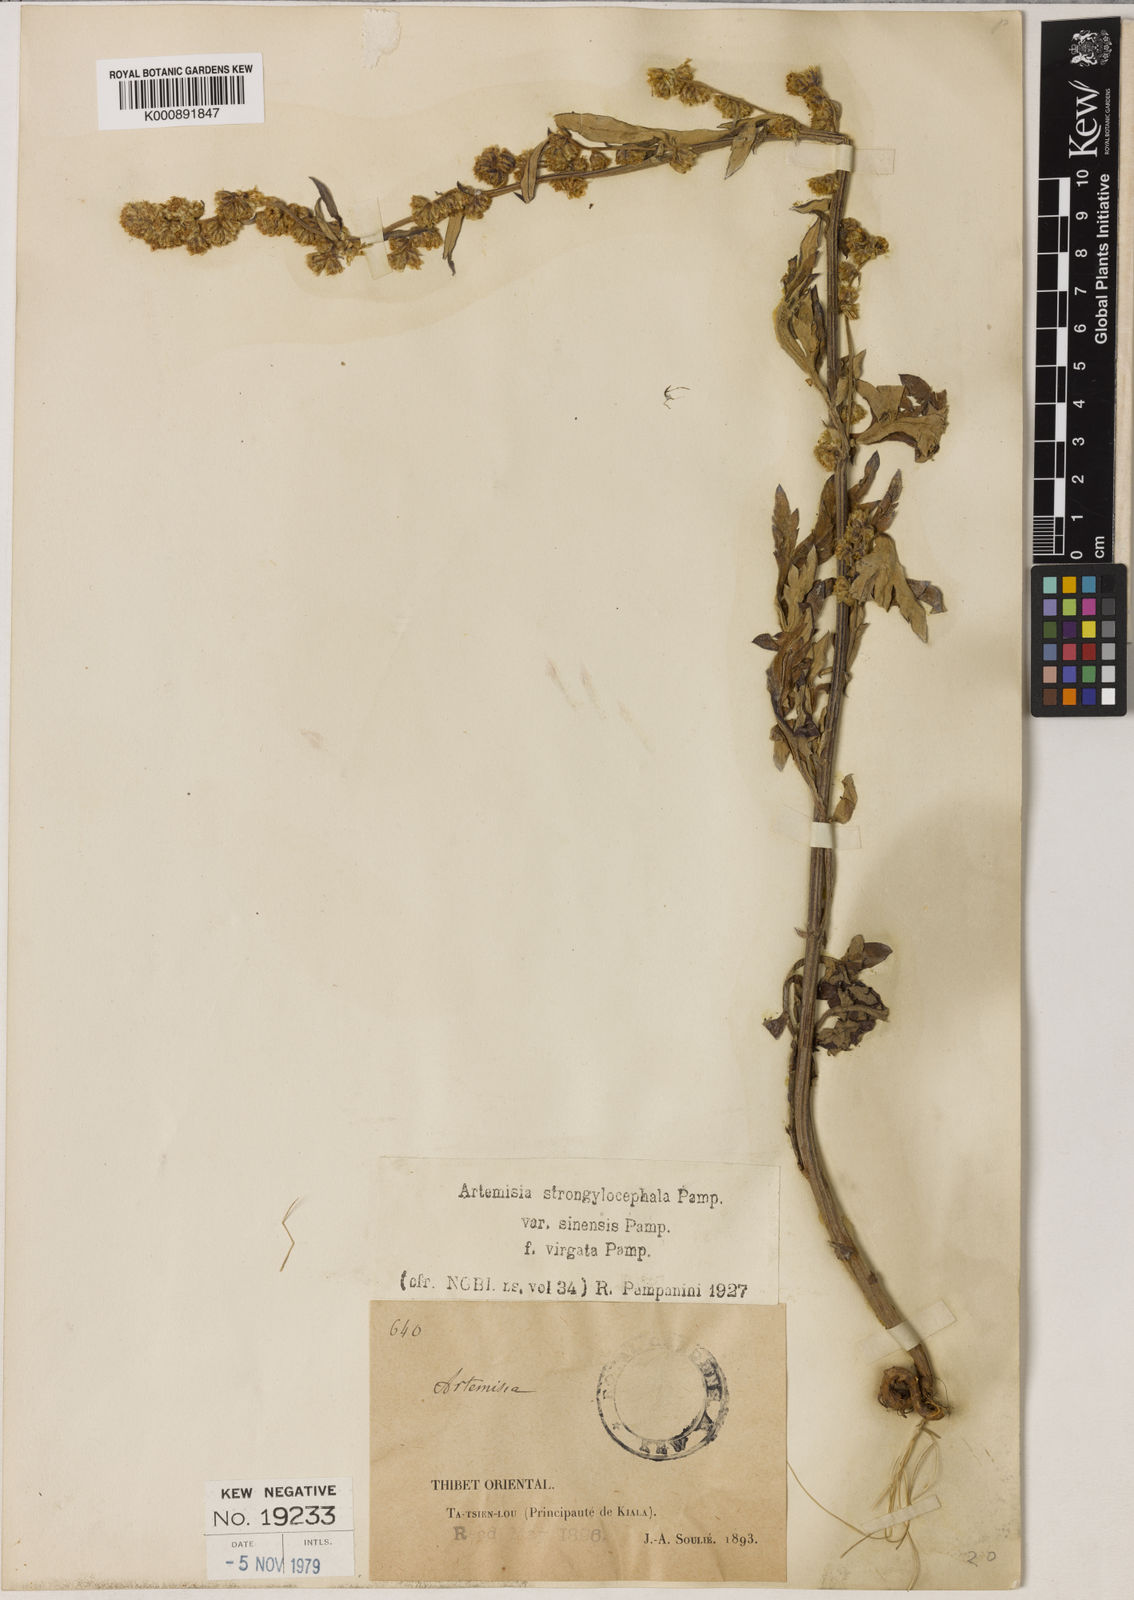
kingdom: Plantae
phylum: Tracheophyta
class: Magnoliopsida
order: Asterales
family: Asteraceae
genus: Artemisia
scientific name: Artemisia sinensis
